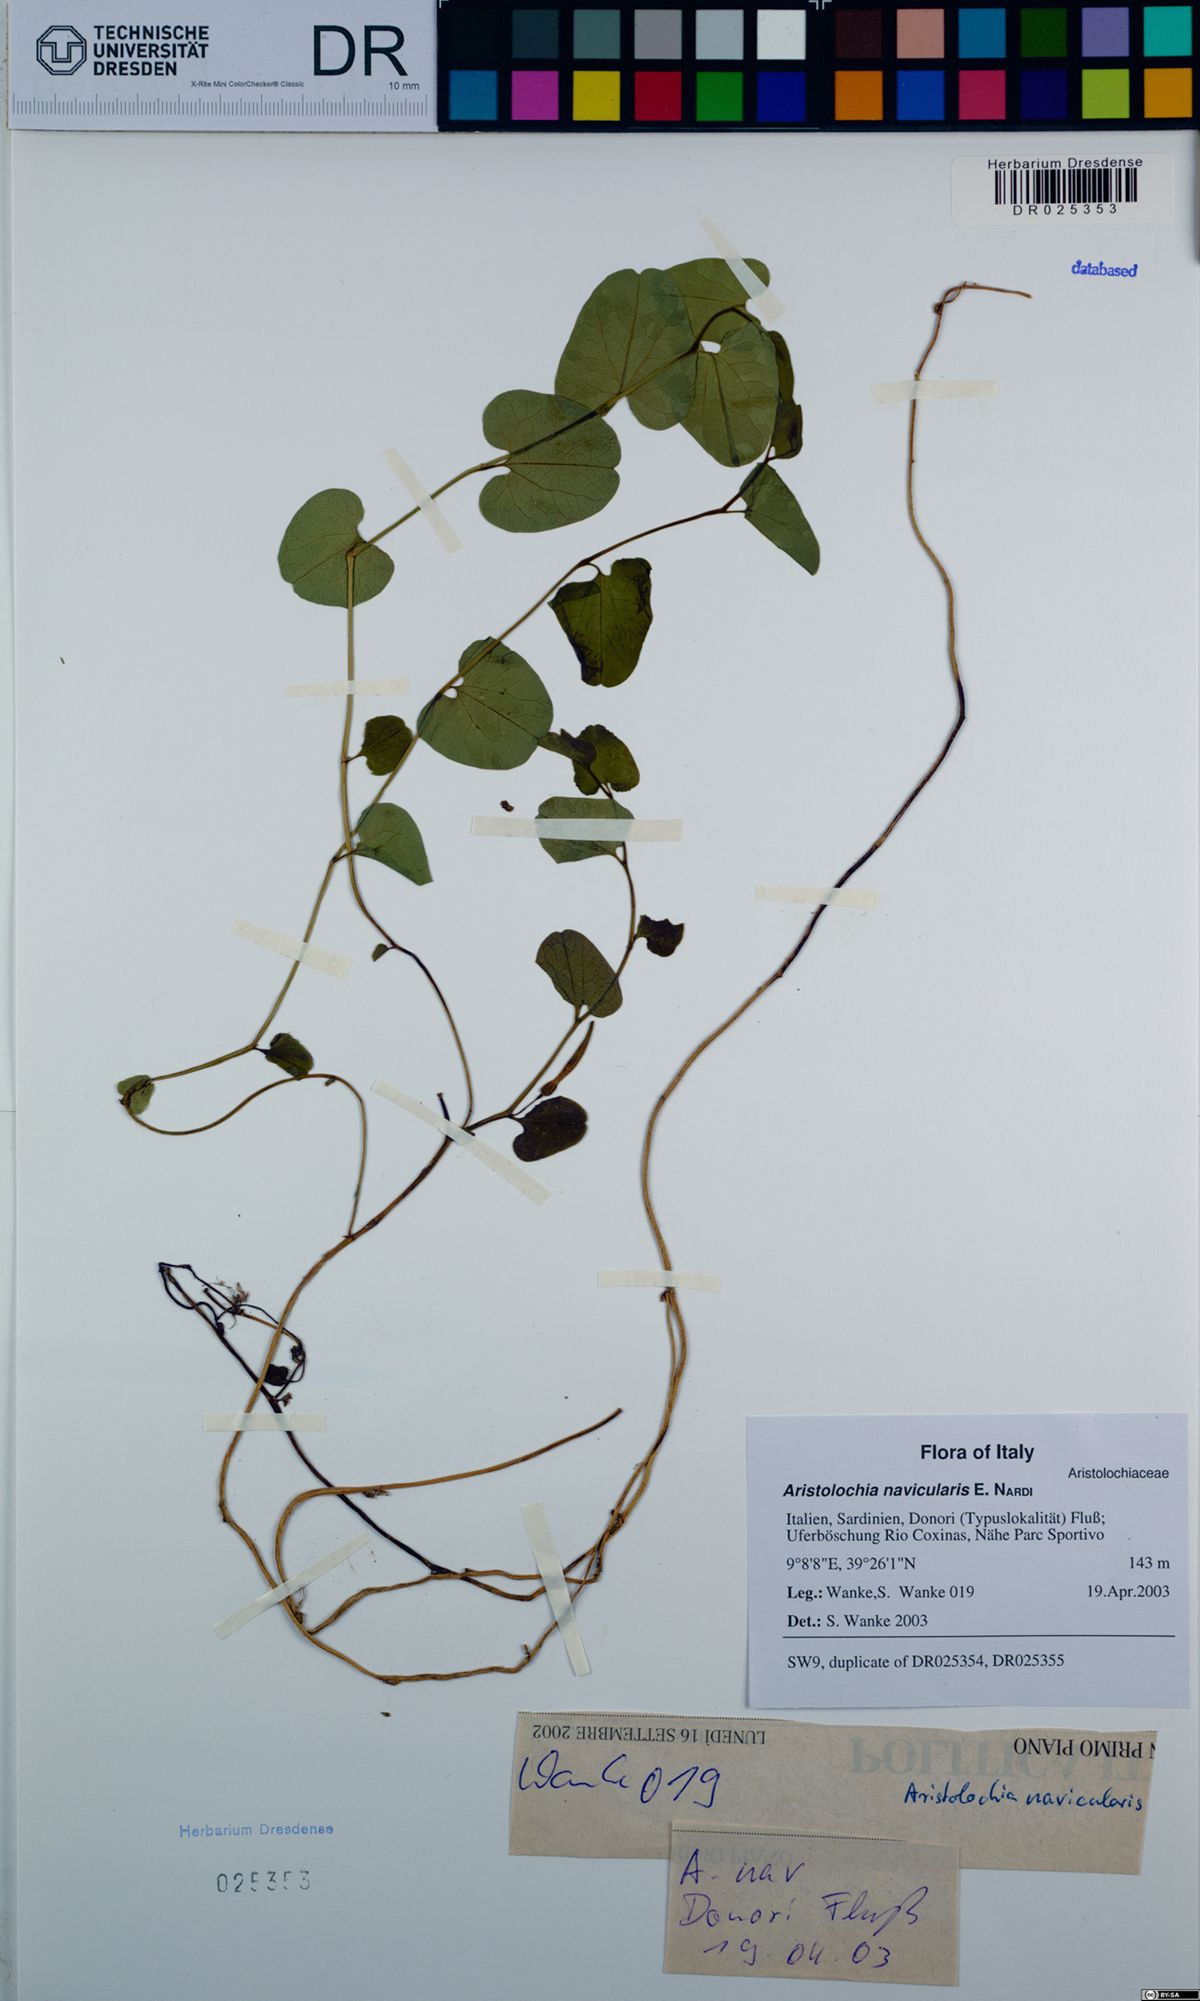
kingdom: Plantae
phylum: Tracheophyta
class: Magnoliopsida
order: Piperales
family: Aristolochiaceae
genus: Aristolochia
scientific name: Aristolochia navicularis
